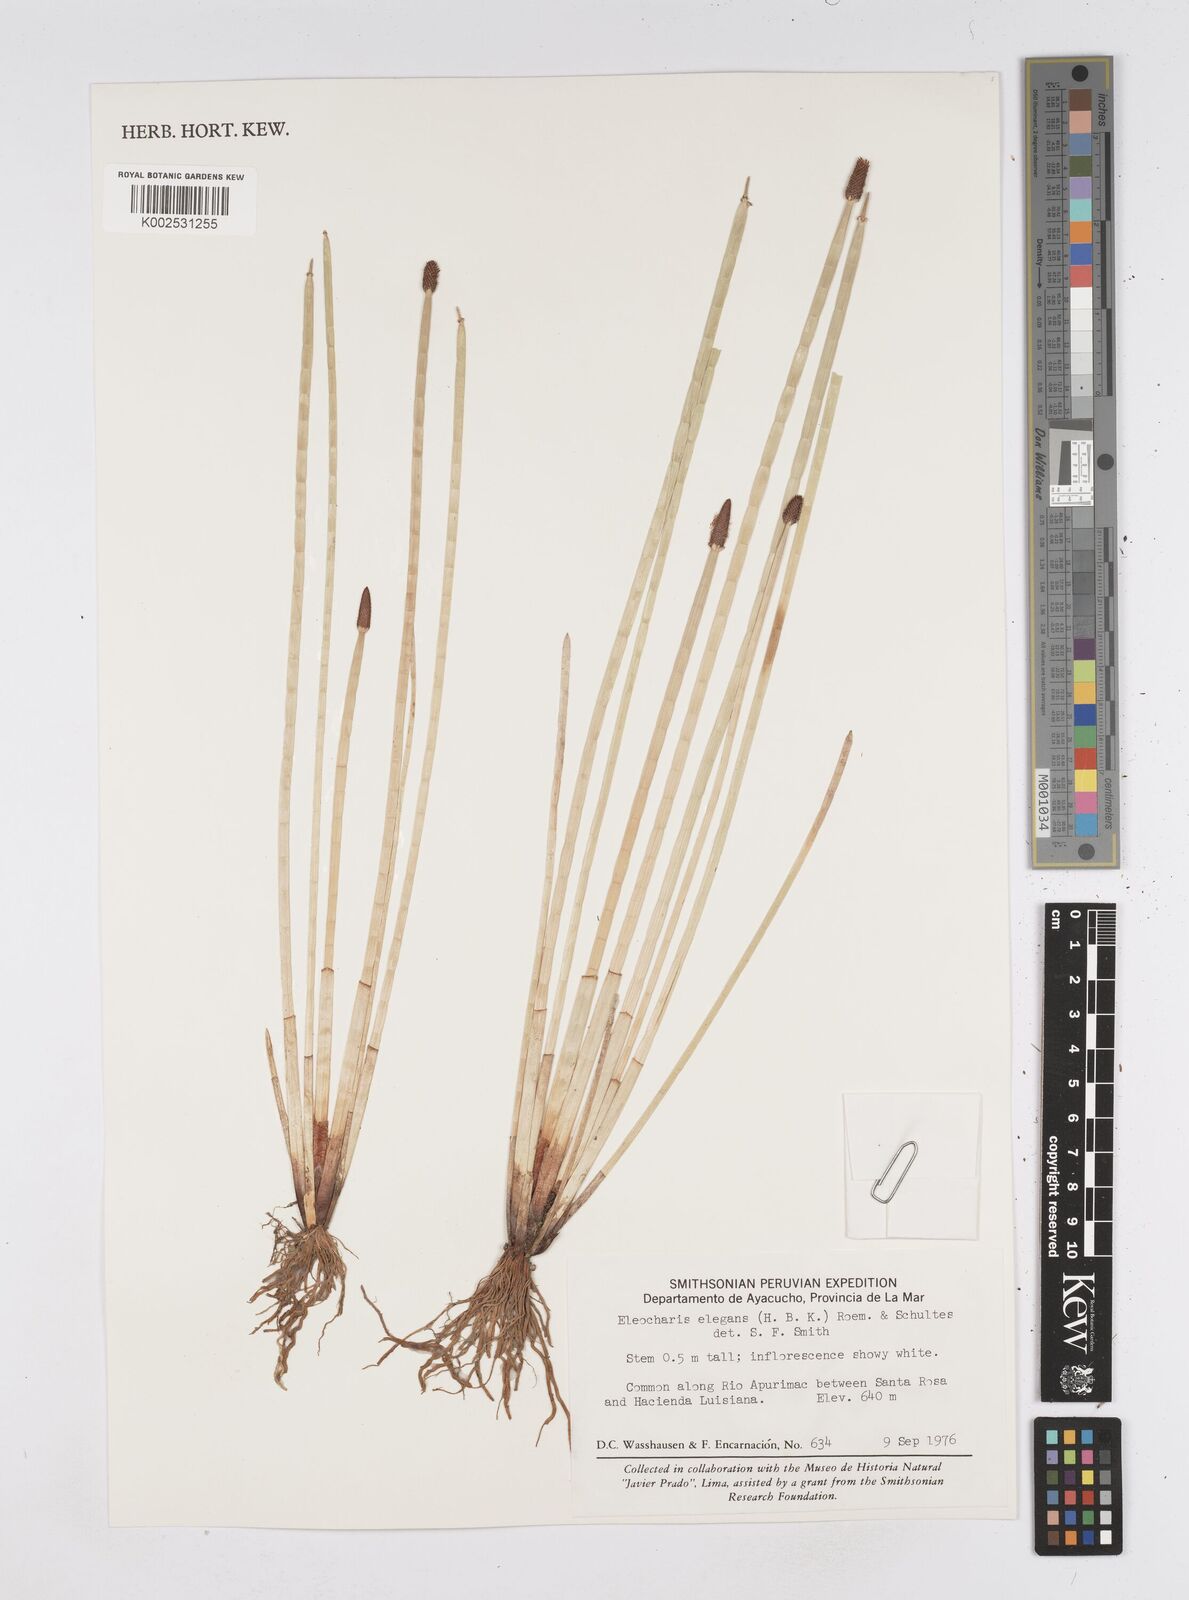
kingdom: Plantae
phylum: Tracheophyta
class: Liliopsida
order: Poales
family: Cyperaceae
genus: Eleocharis
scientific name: Eleocharis elegans
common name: Elegant spike-rush
